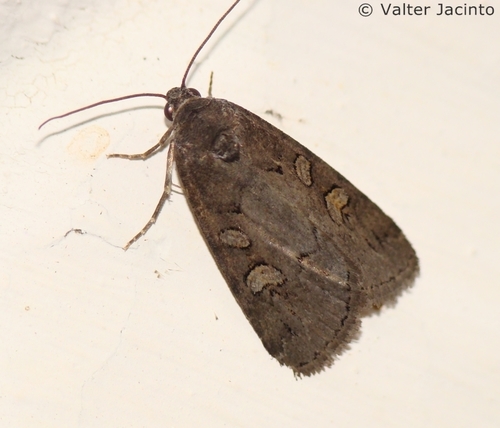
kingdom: Animalia
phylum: Arthropoda
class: Insecta
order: Lepidoptera
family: Noctuidae
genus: Stilbia
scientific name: Stilbia anomala
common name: Anomalous
